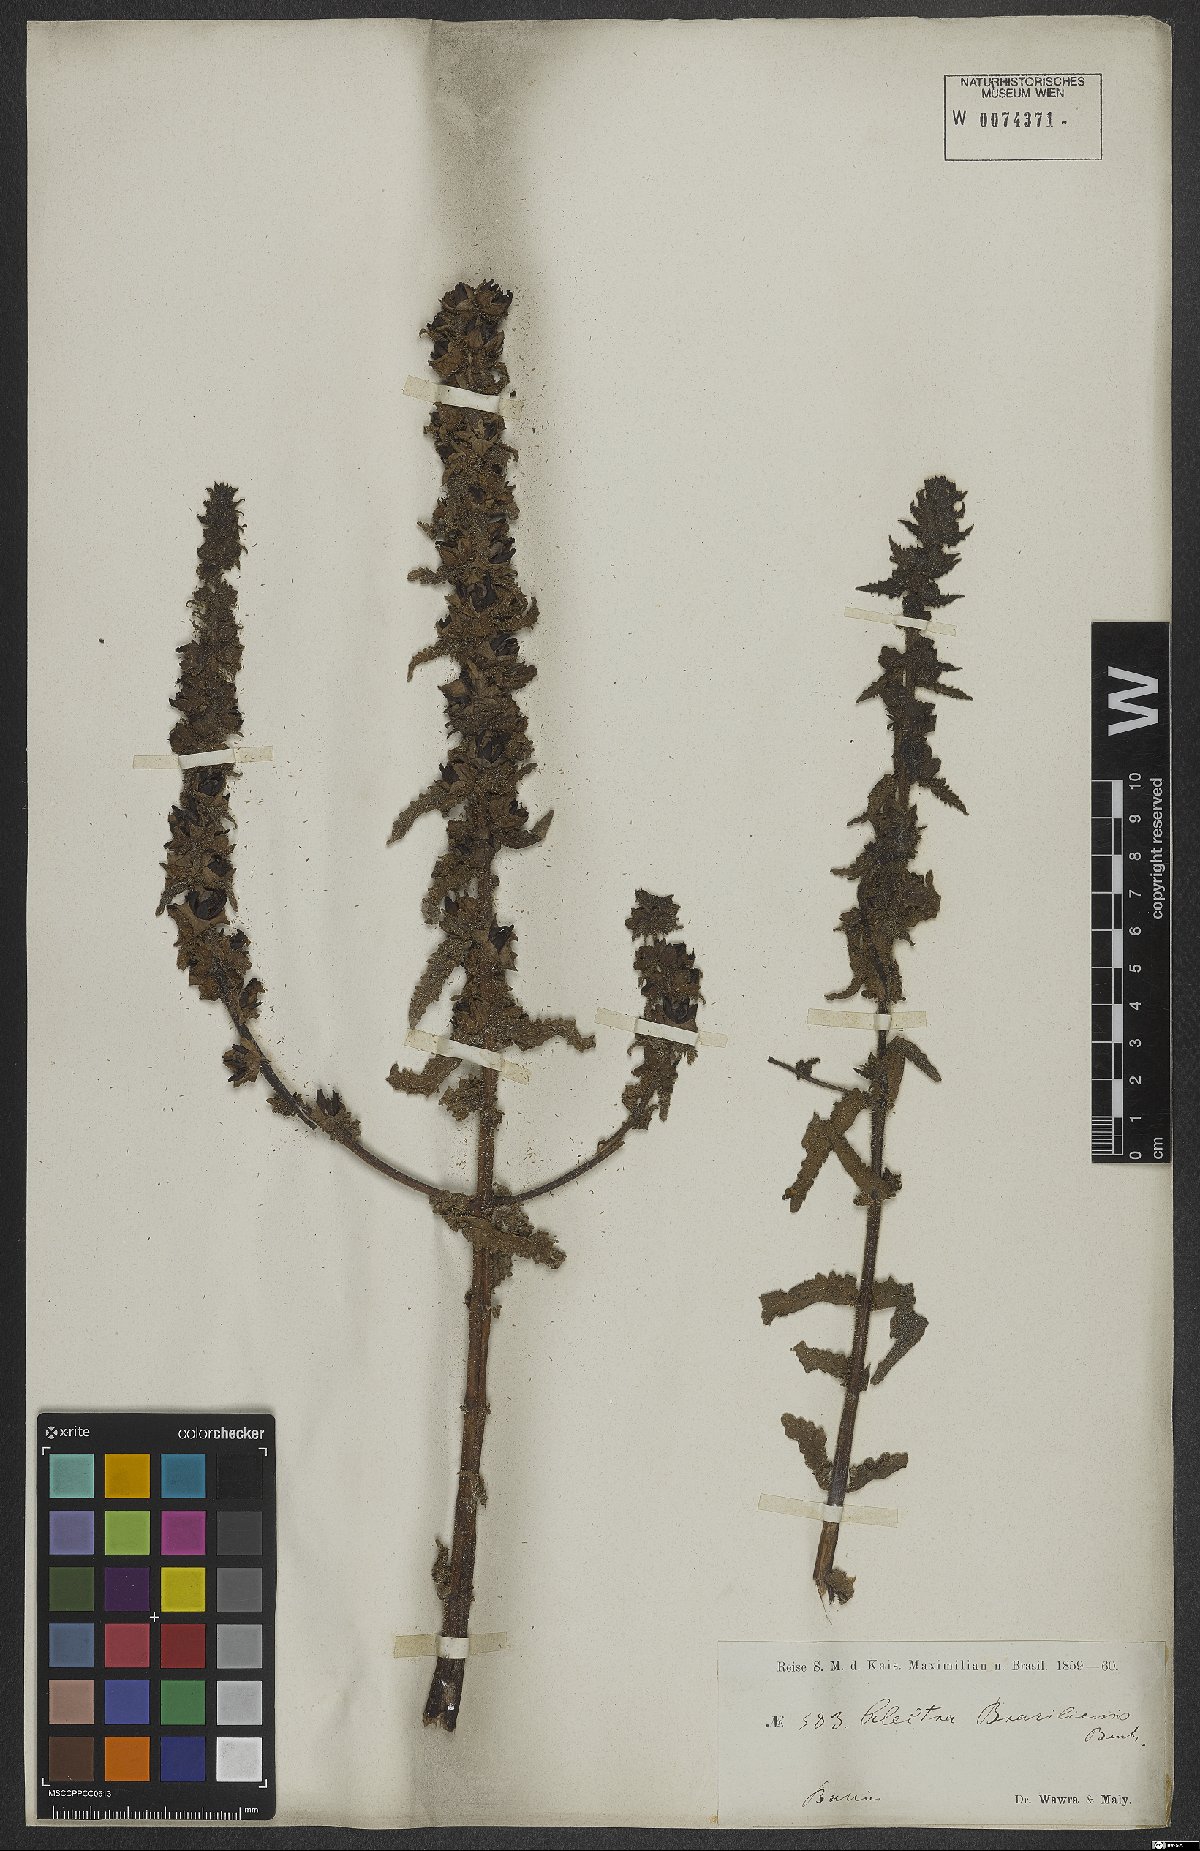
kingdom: Plantae
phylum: Tracheophyta
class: Magnoliopsida
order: Lamiales
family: Orobanchaceae
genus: Melasma
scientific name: Melasma melampyroides
